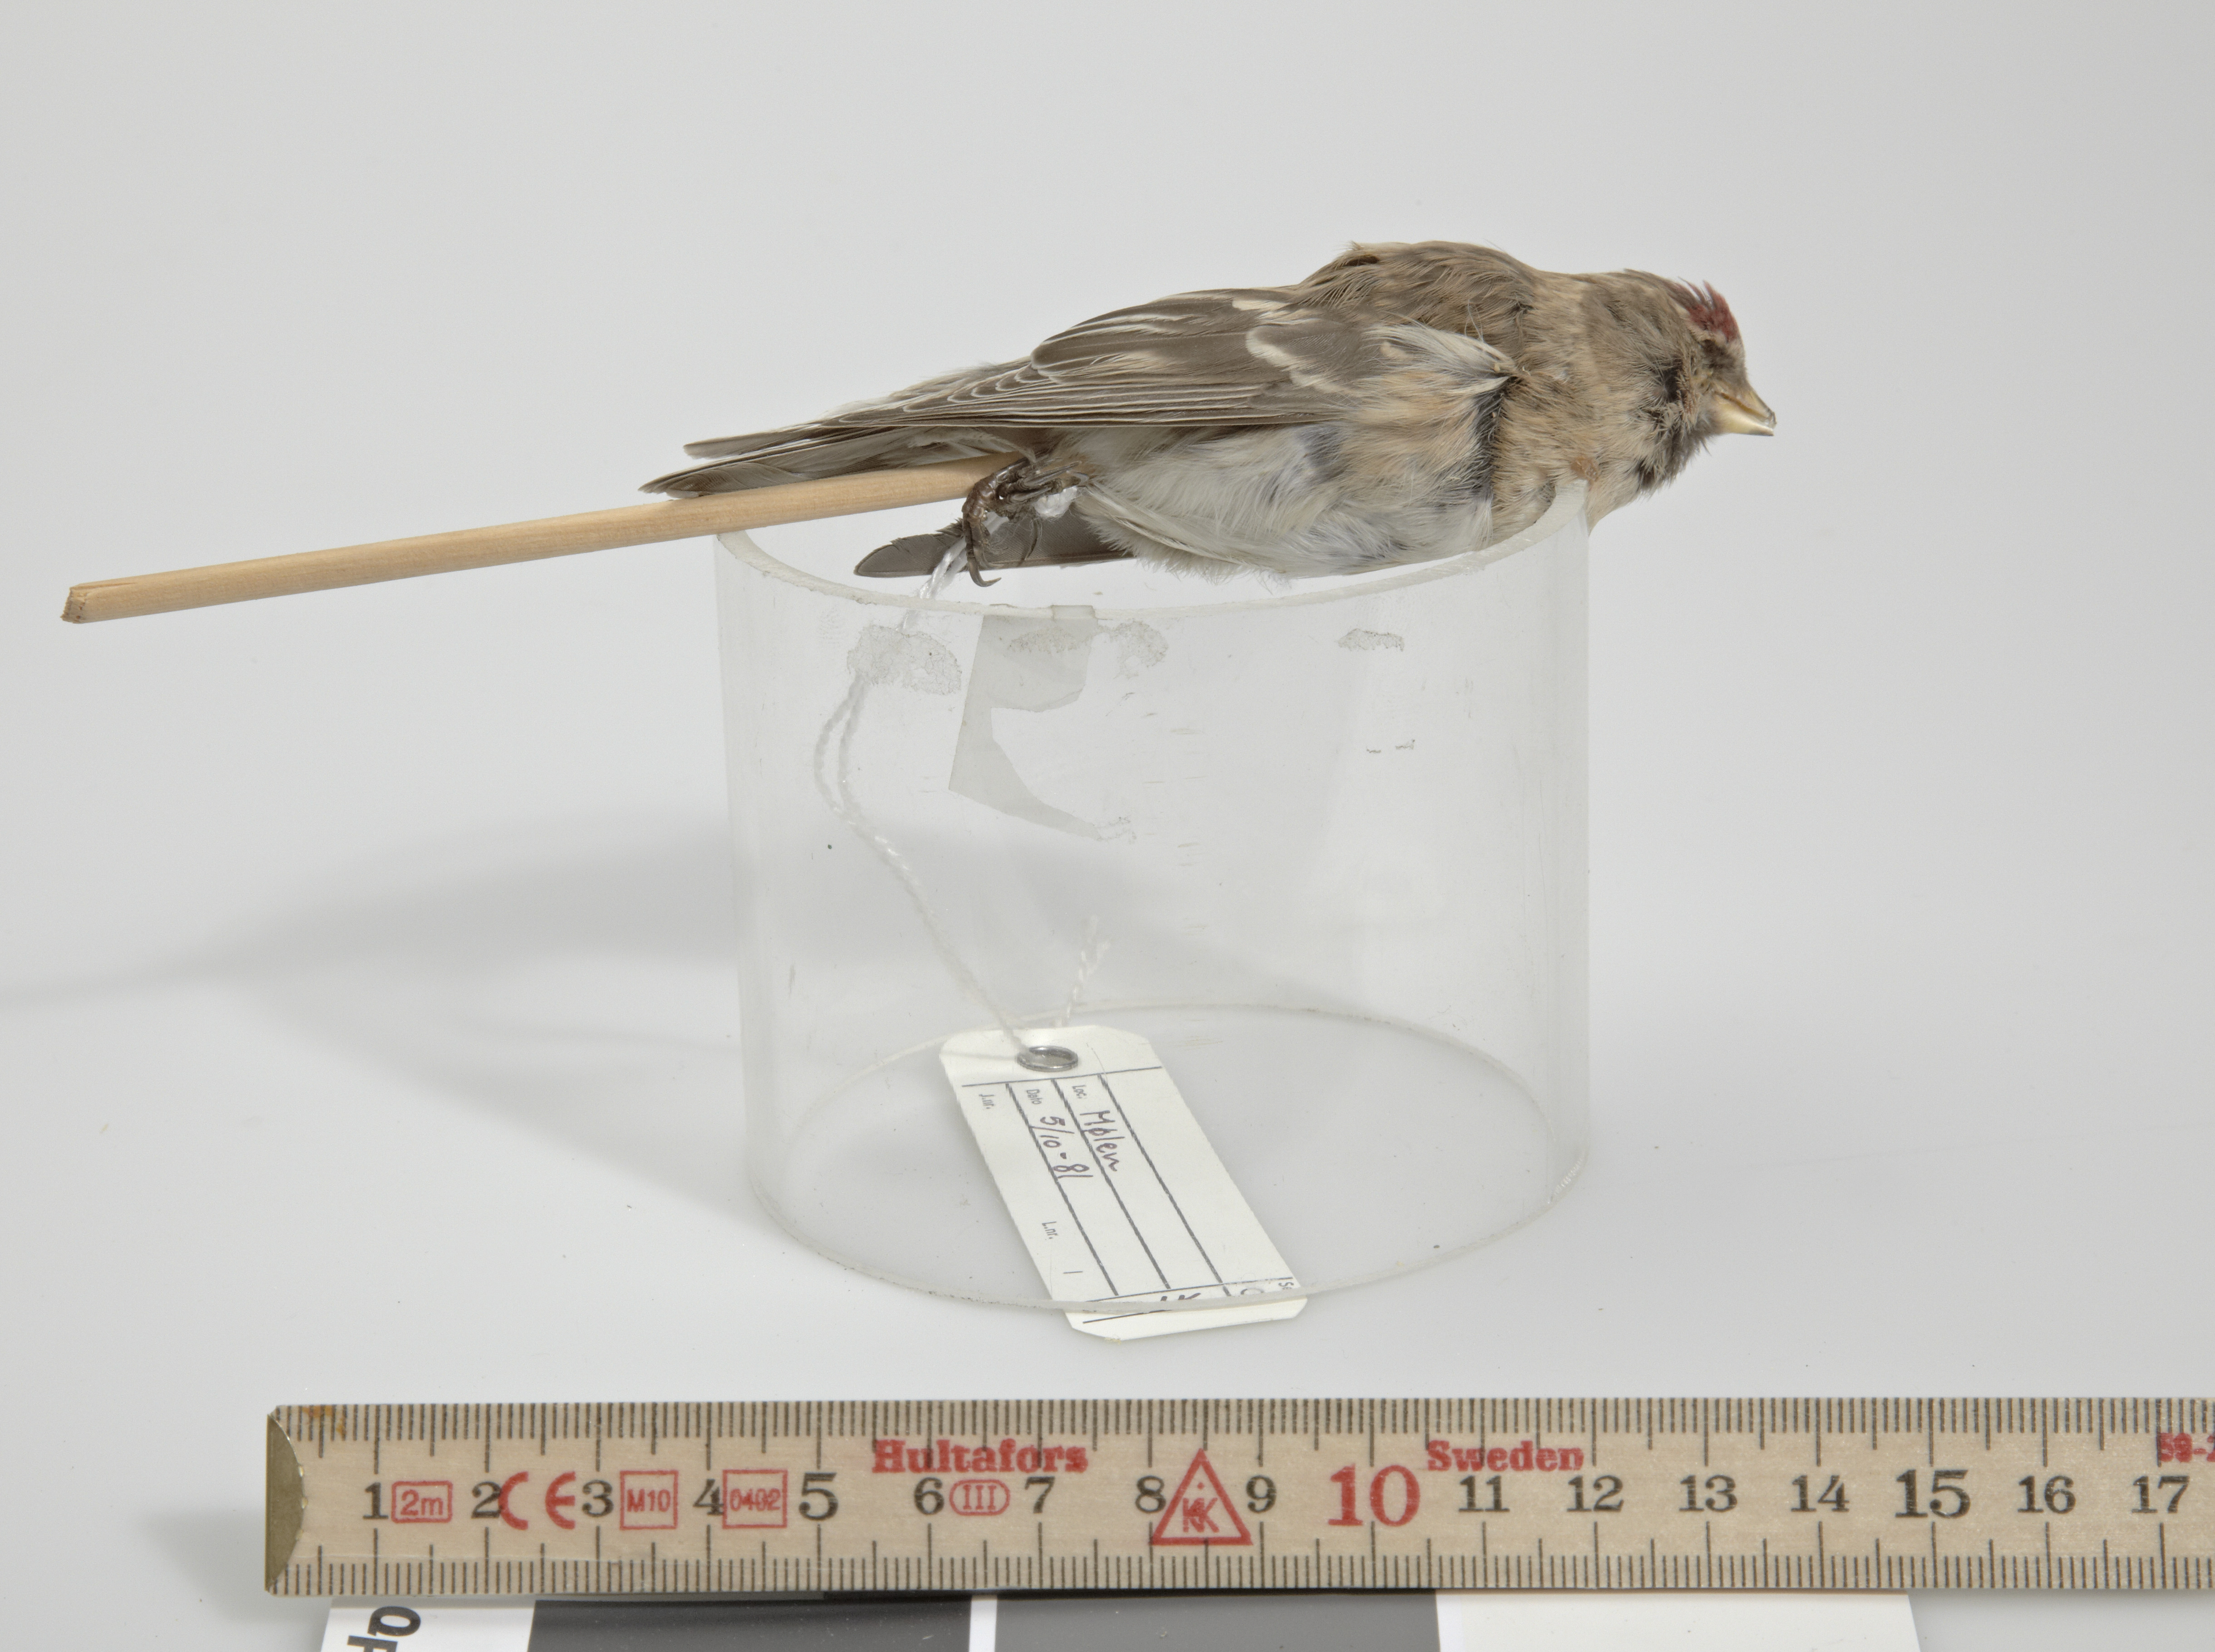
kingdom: Animalia
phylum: Chordata
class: Aves
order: Passeriformes
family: Fringillidae
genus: Acanthis
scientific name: Acanthis flammea
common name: Common redpoll
